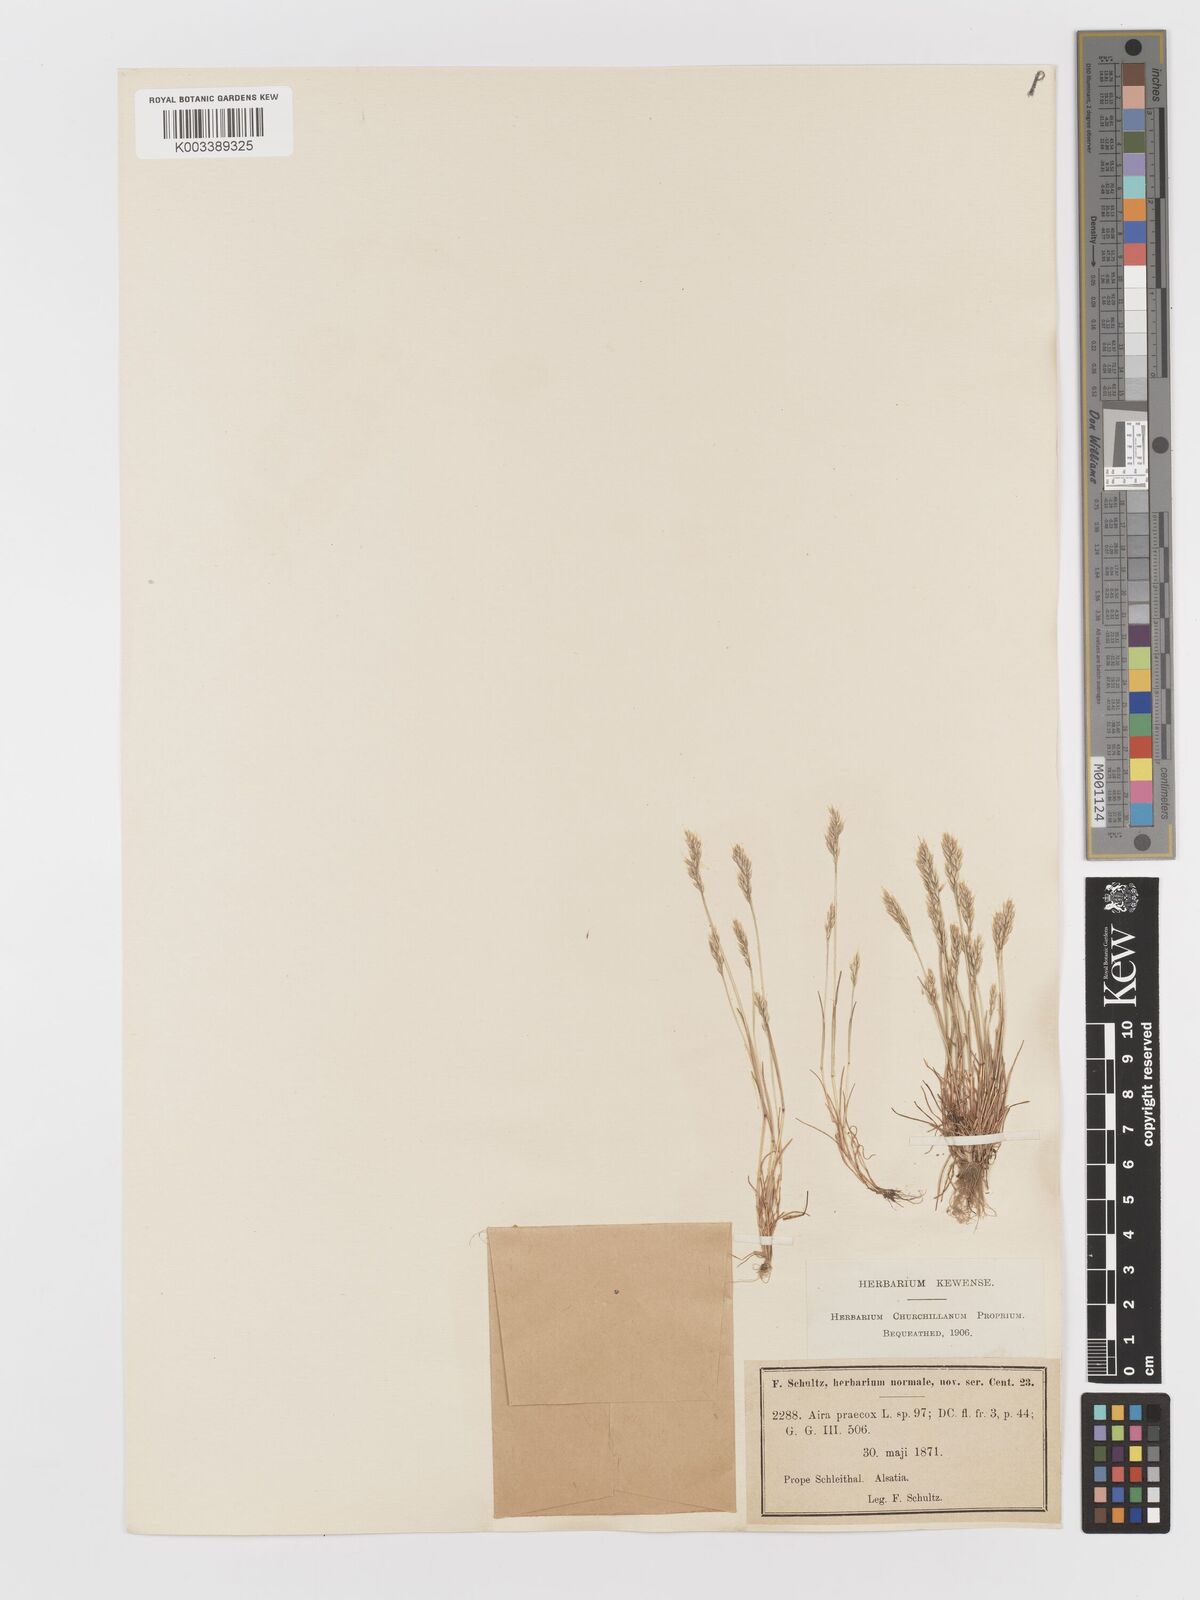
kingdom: Plantae
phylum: Tracheophyta
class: Liliopsida
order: Poales
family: Poaceae
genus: Aira
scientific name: Aira praecox
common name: Early hair-grass
